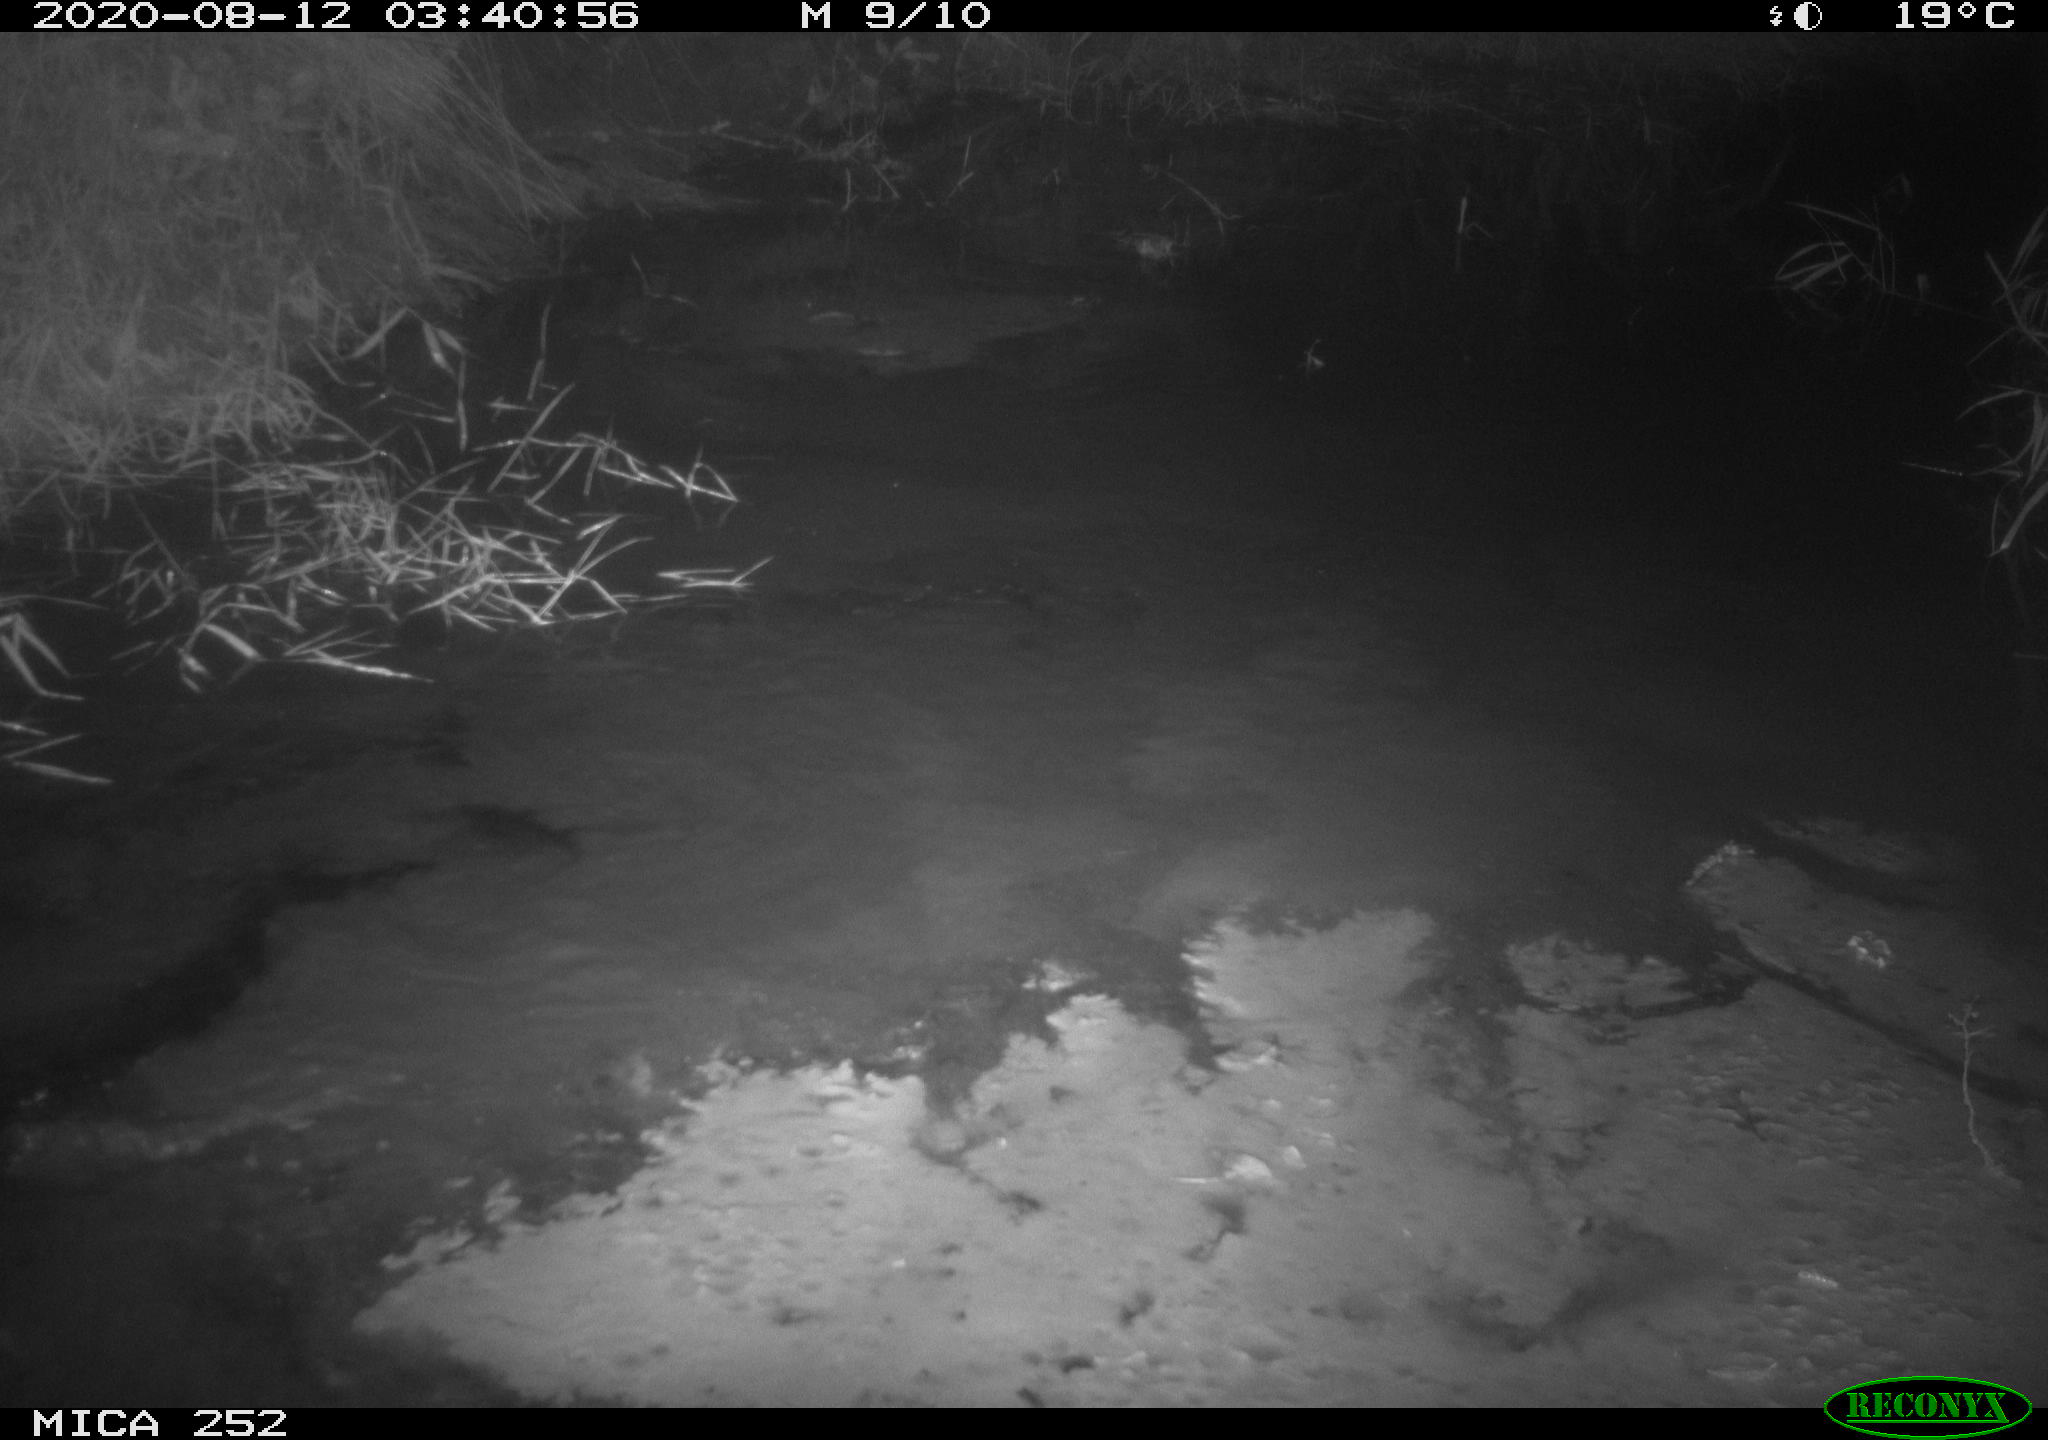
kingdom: Animalia
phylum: Chordata
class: Mammalia
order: Rodentia
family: Castoridae
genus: Castor
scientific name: Castor fiber
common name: Eurasian beaver
